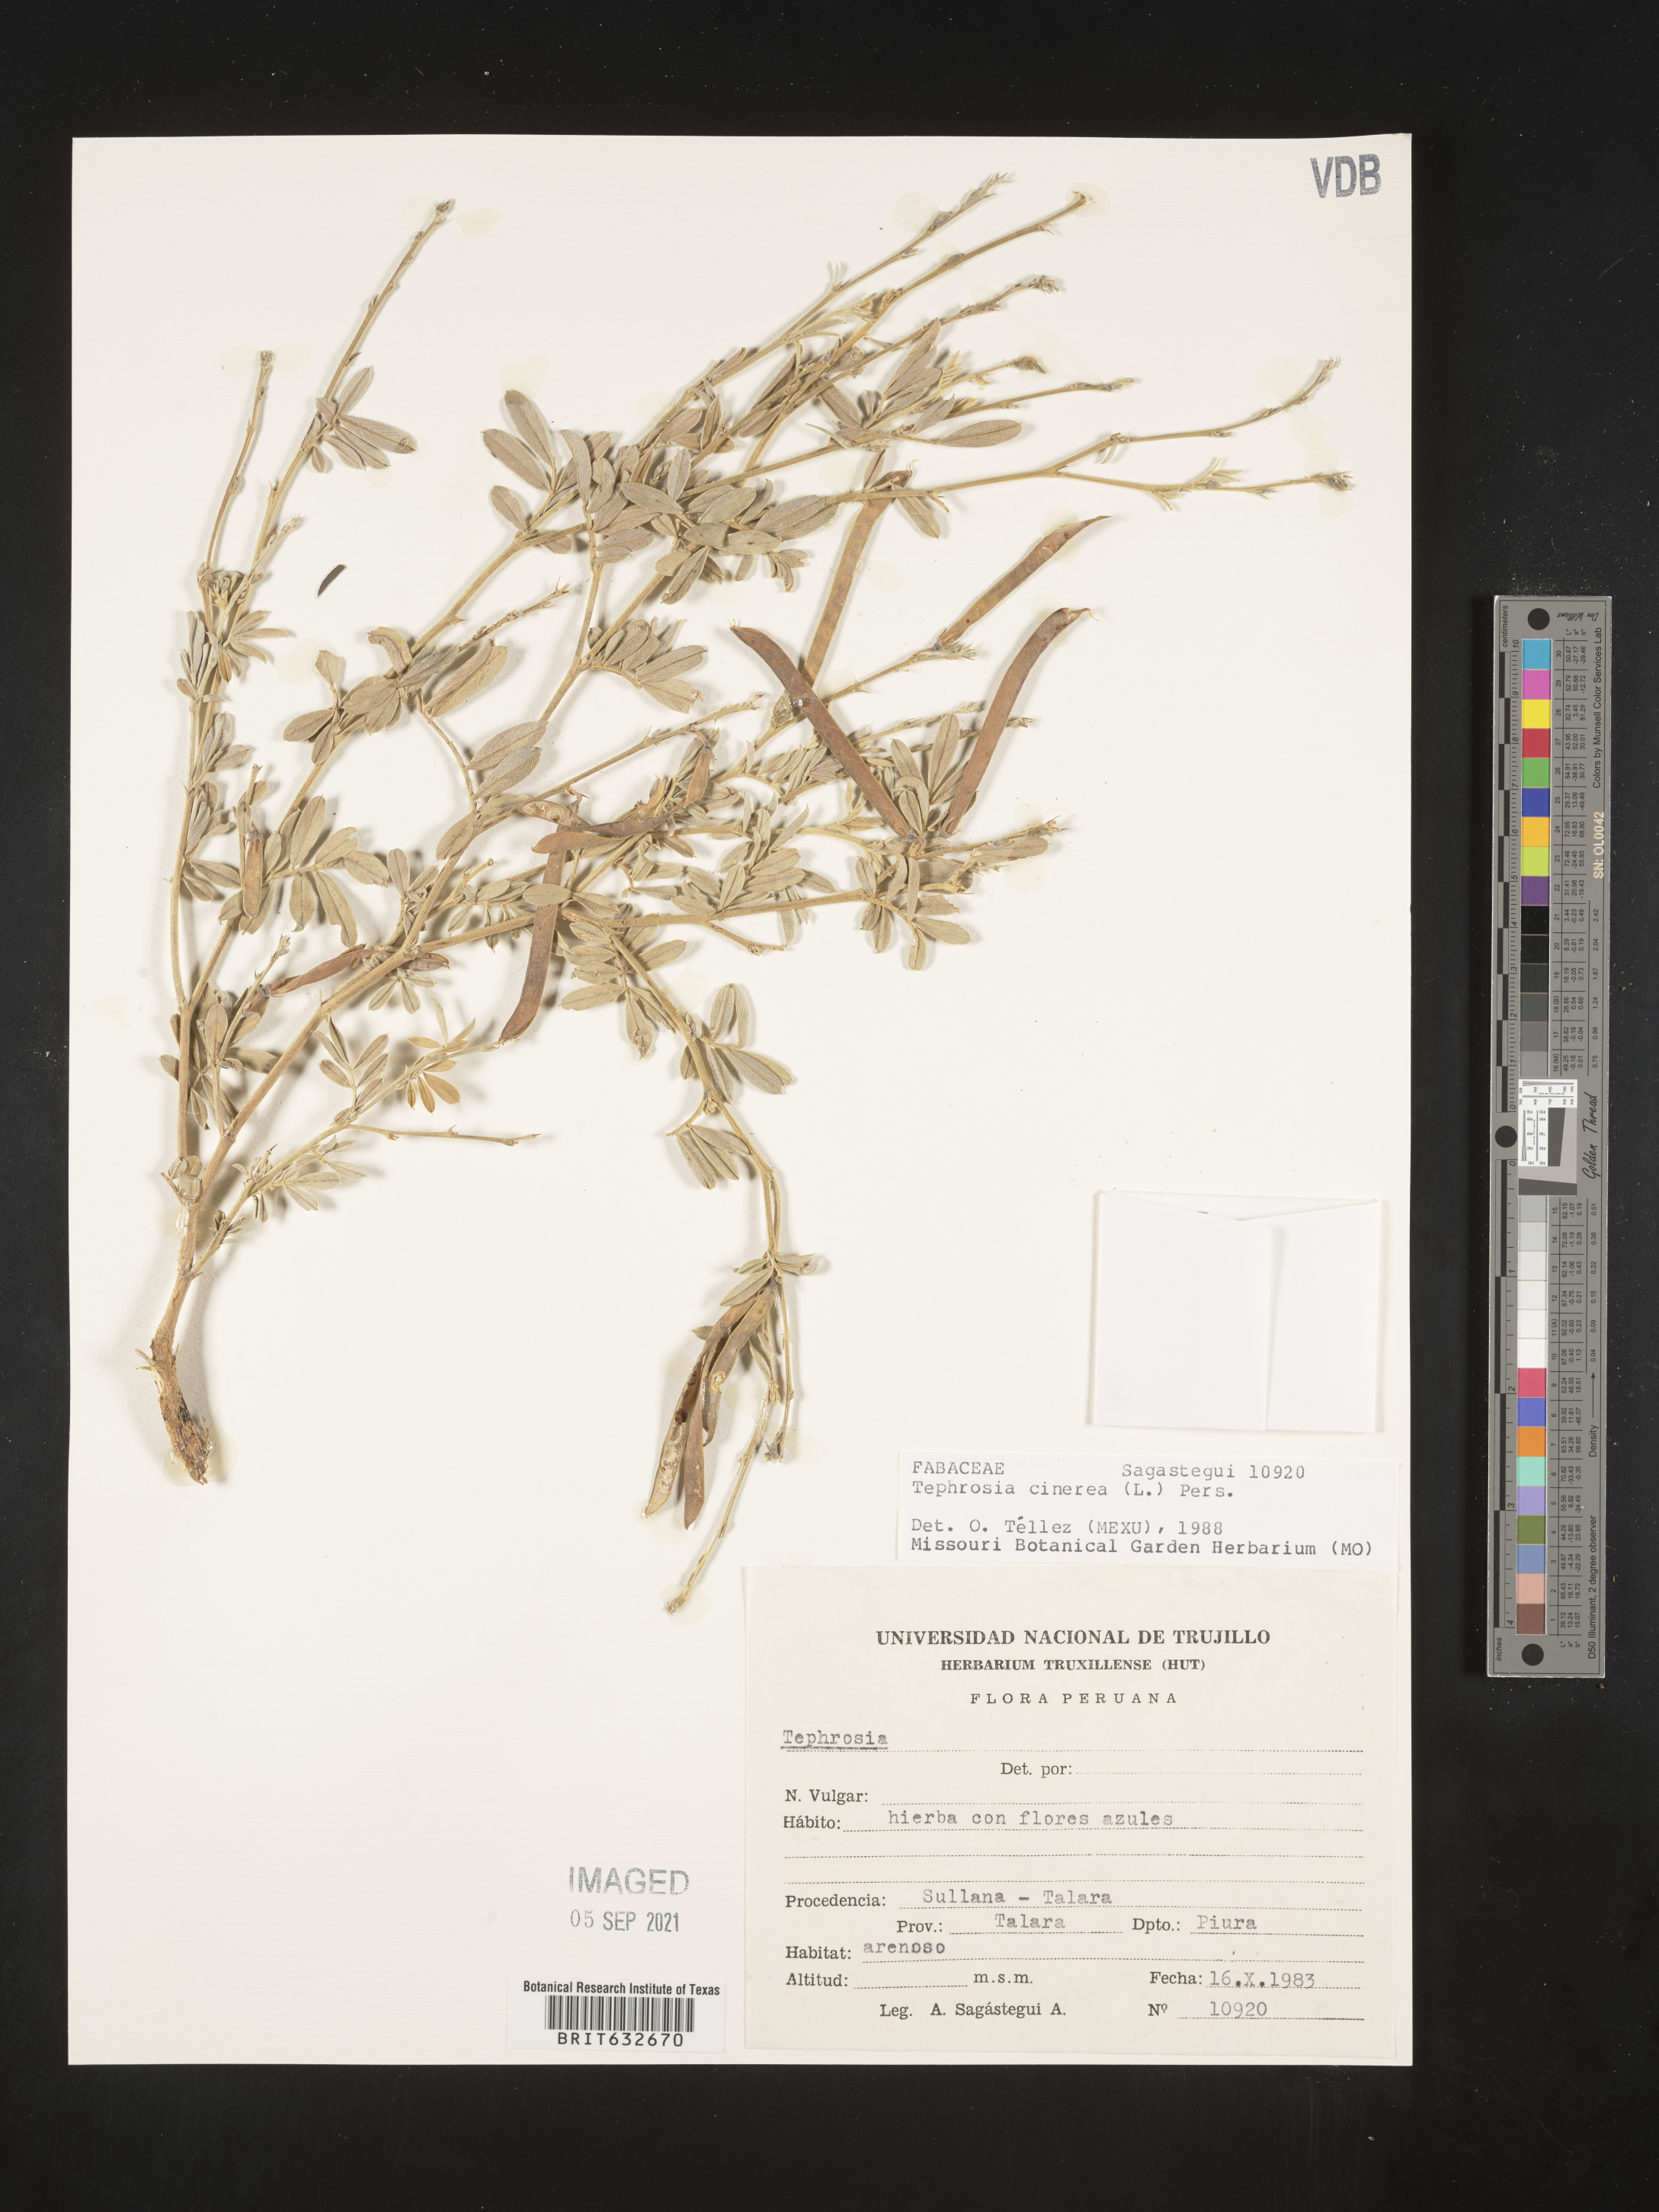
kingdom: Plantae
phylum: Tracheophyta
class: Magnoliopsida
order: Fabales
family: Fabaceae
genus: Tephrosia
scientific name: Tephrosia
